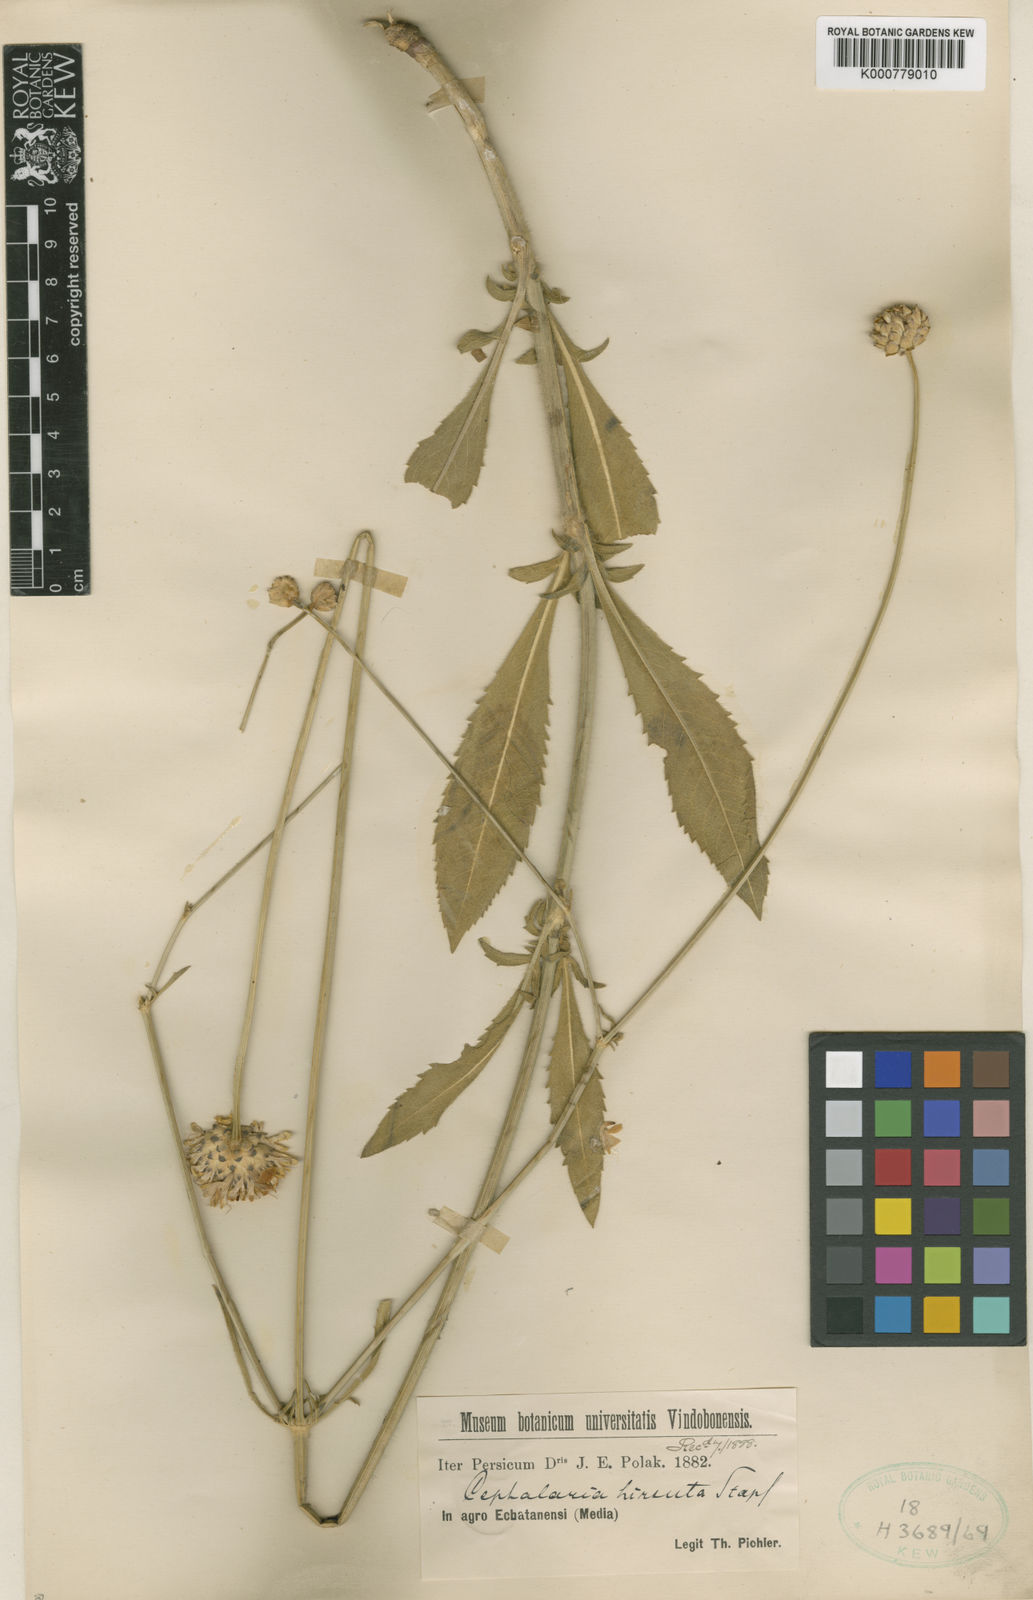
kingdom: Plantae
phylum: Tracheophyta
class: Magnoliopsida
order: Dipsacales
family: Caprifoliaceae
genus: Cephalaria
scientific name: Cephalaria hirsuta
